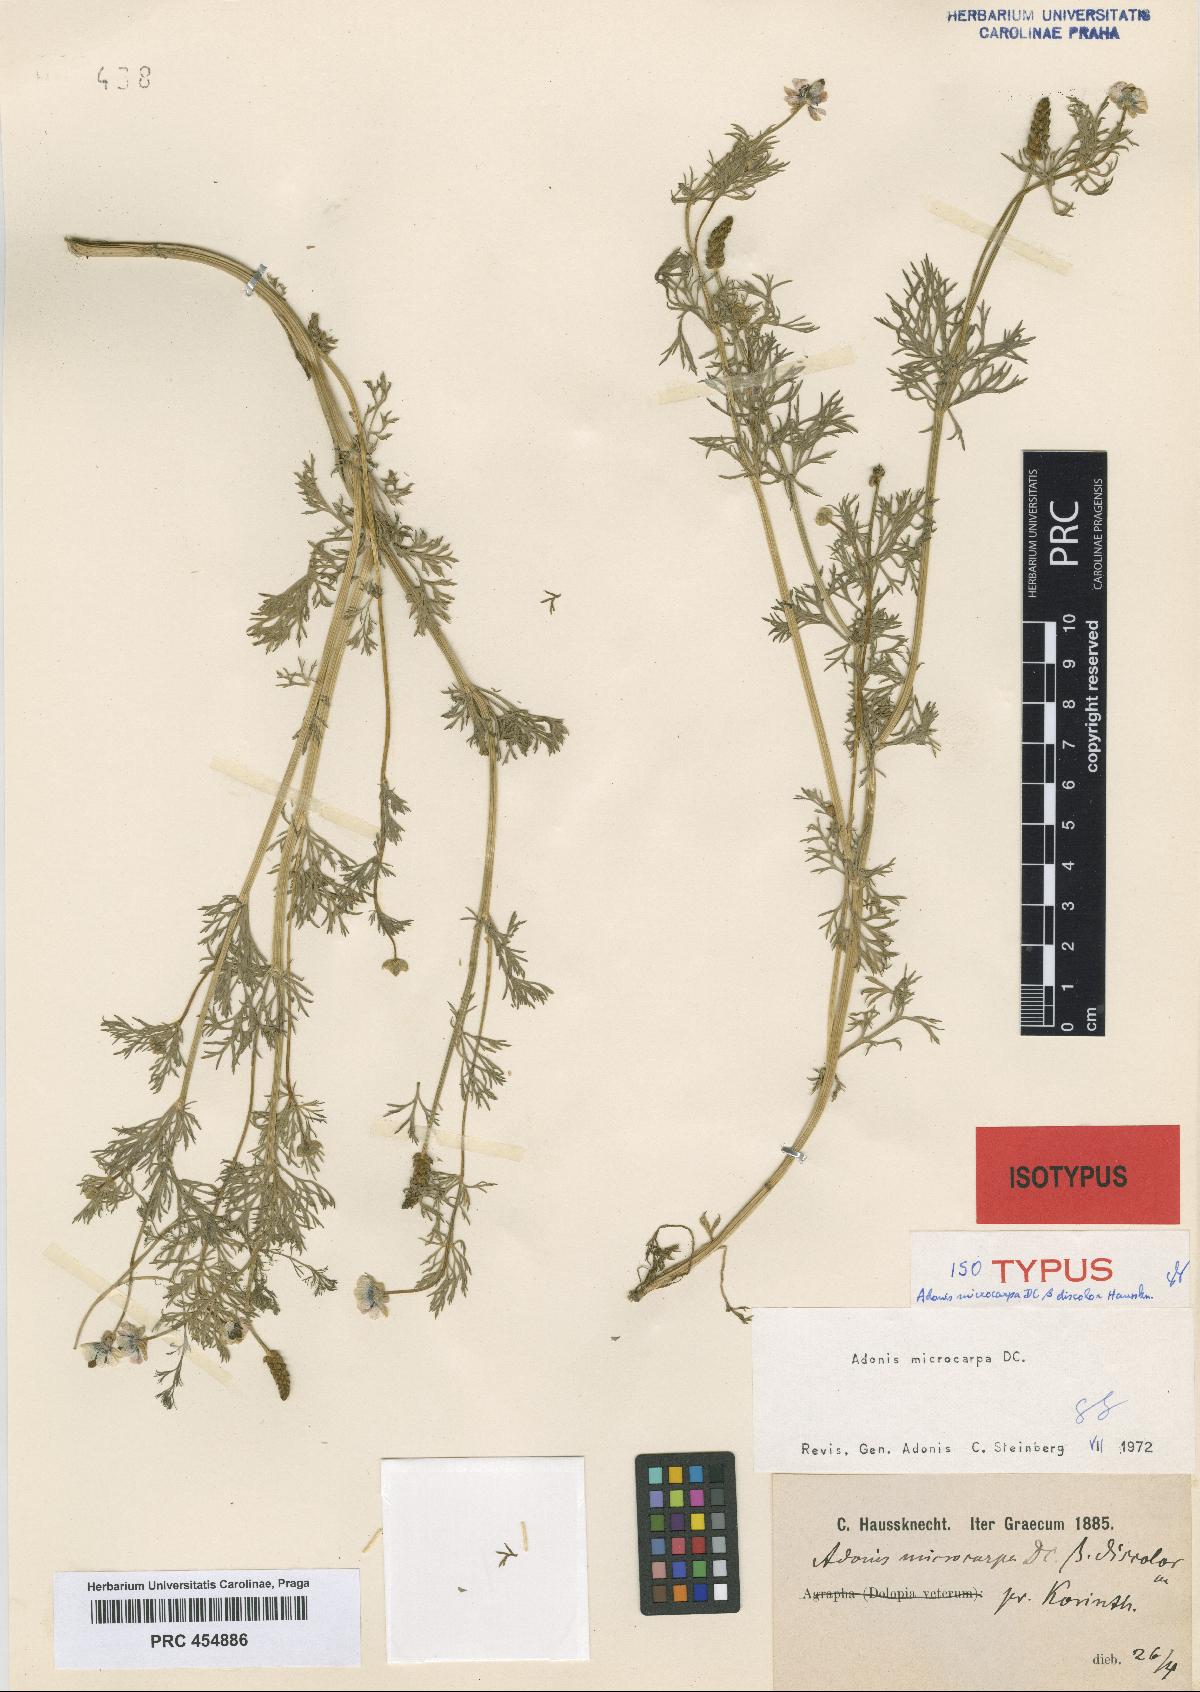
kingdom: Plantae
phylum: Tracheophyta
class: Magnoliopsida
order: Ranunculales
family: Ranunculaceae
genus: Adonis
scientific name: Adonis microcarpa
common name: Pheasant's-eye
